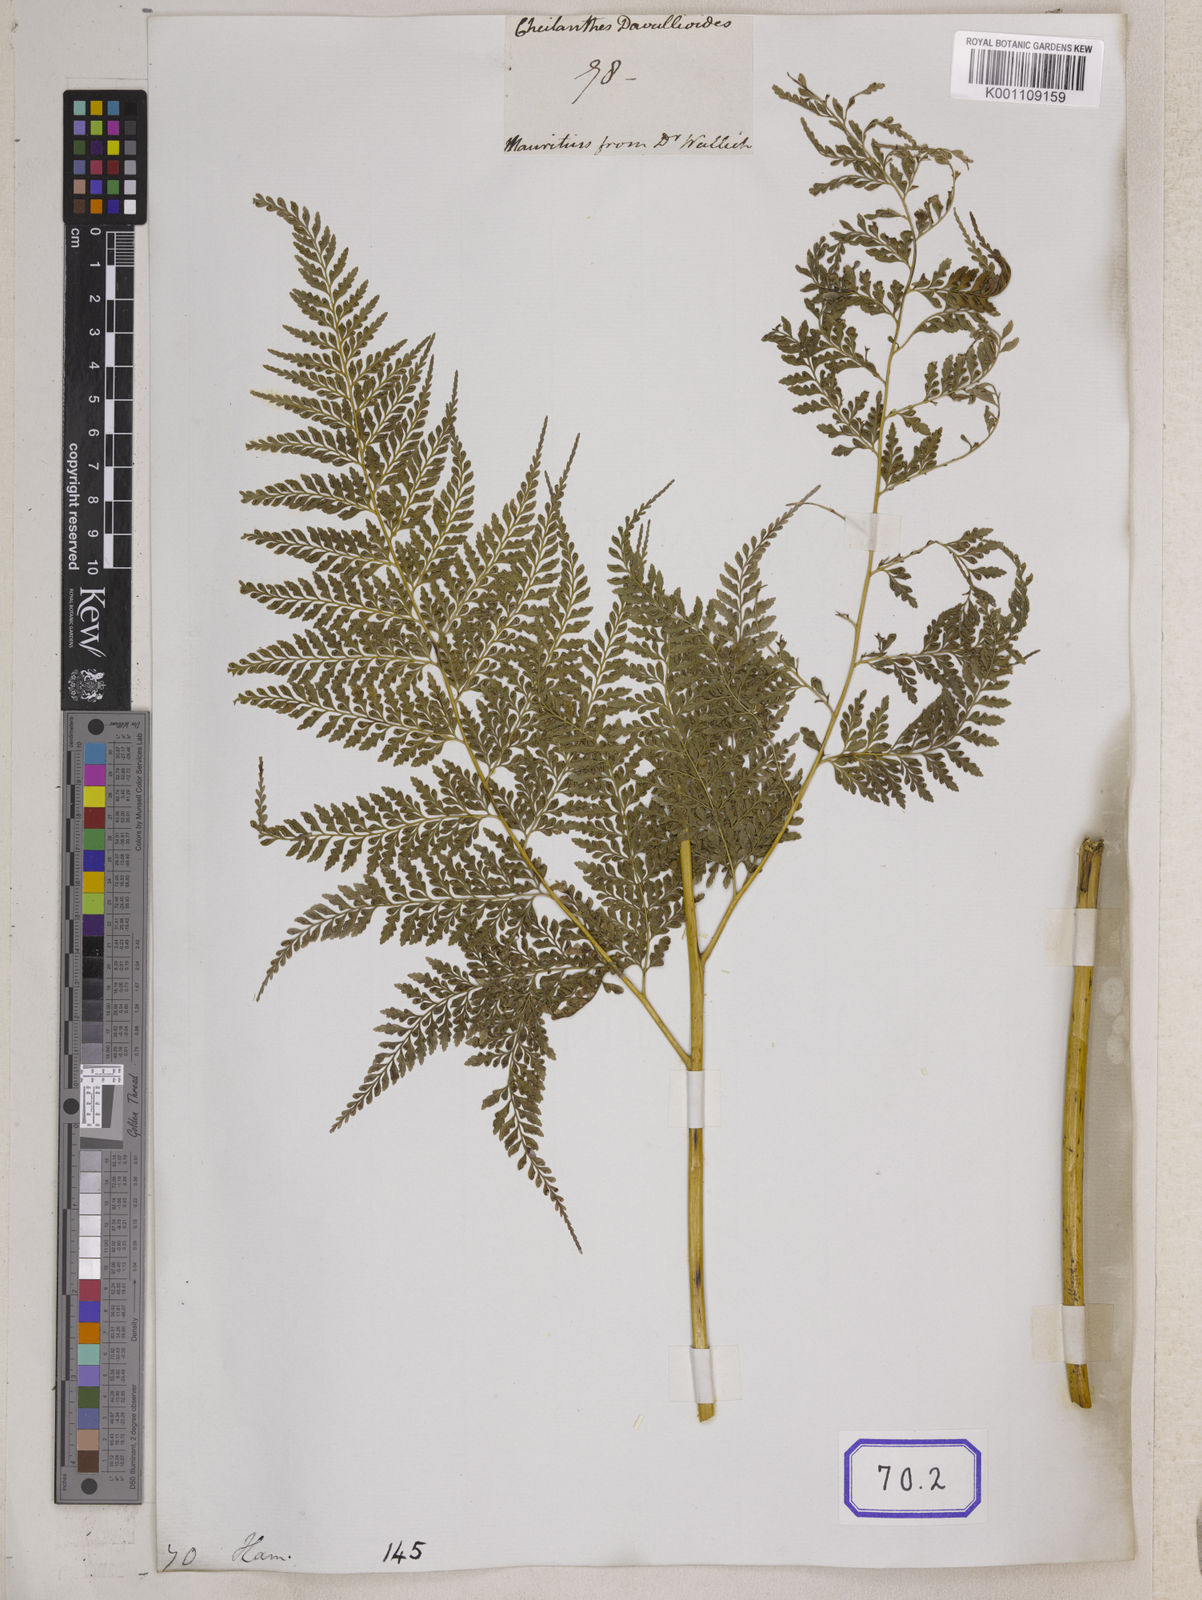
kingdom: Plantae
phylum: Tracheophyta
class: Polypodiopsida
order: Polypodiales
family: Pteridaceae
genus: Cheilanthes
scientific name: Cheilanthes
